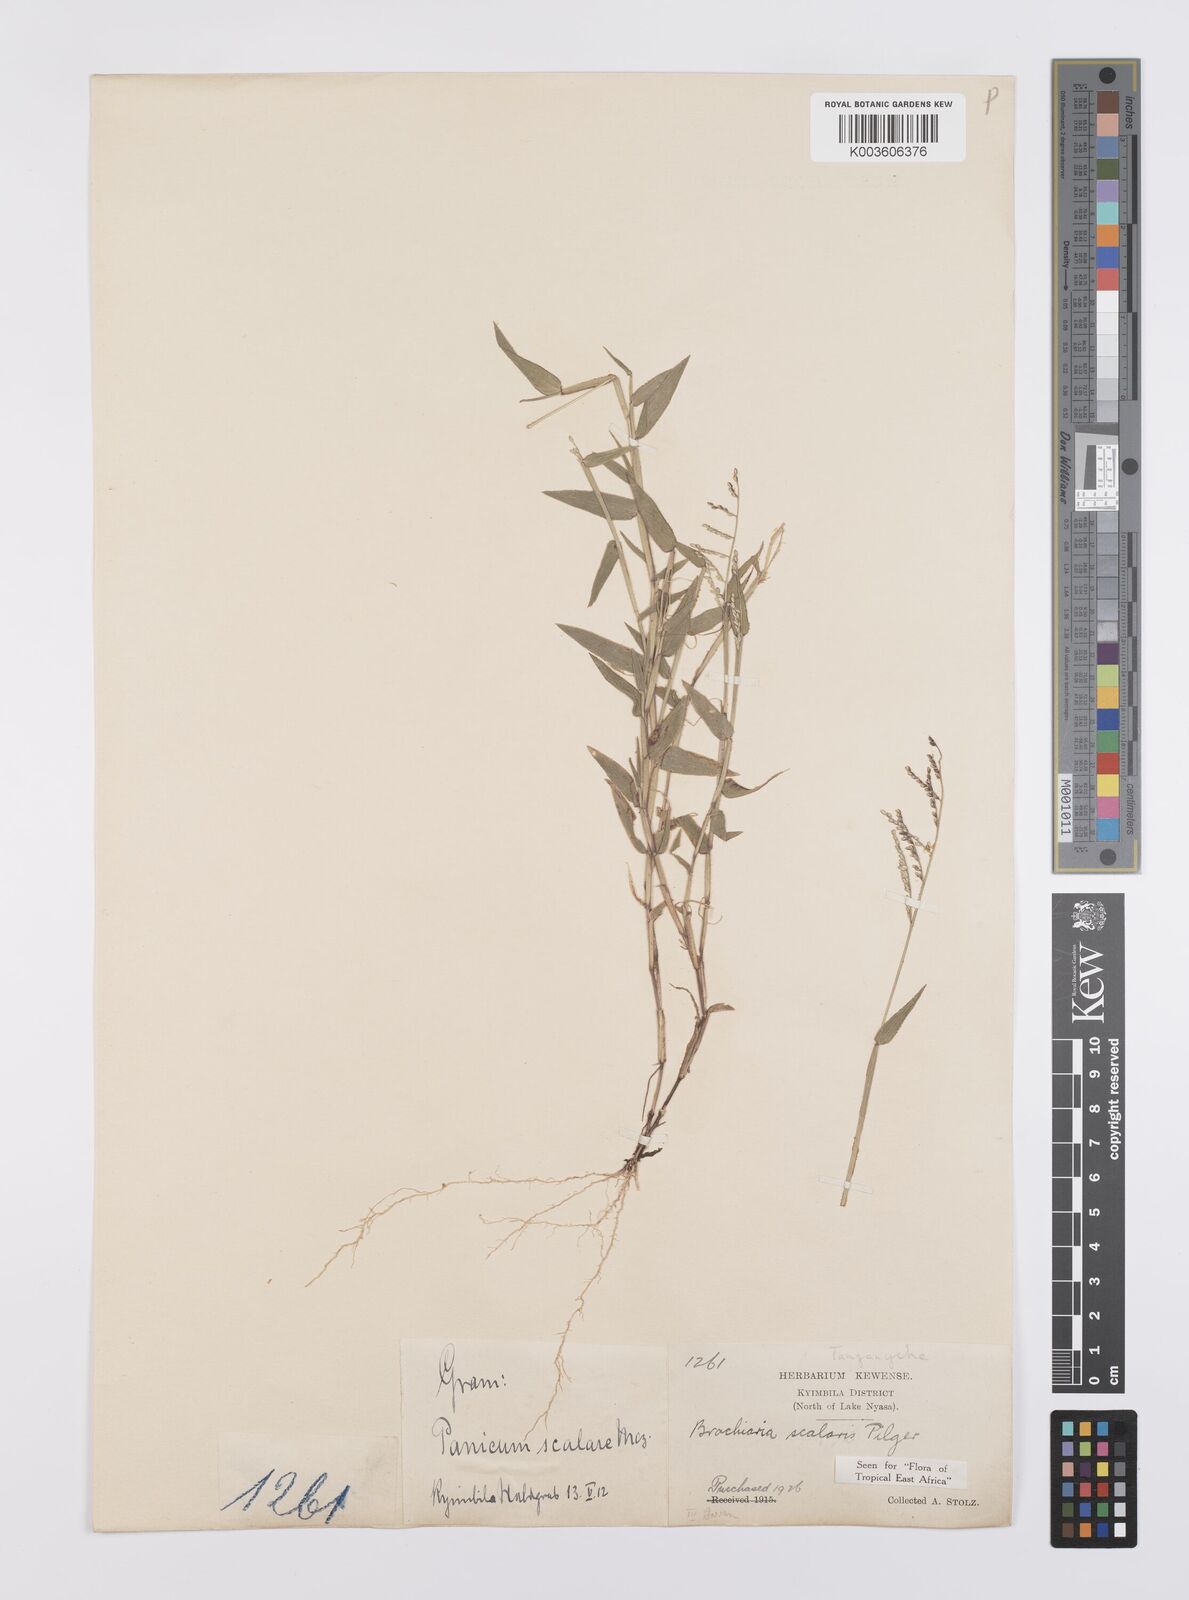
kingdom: Plantae
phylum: Tracheophyta
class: Liliopsida
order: Poales
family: Poaceae
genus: Urochloa
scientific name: Urochloa comata
